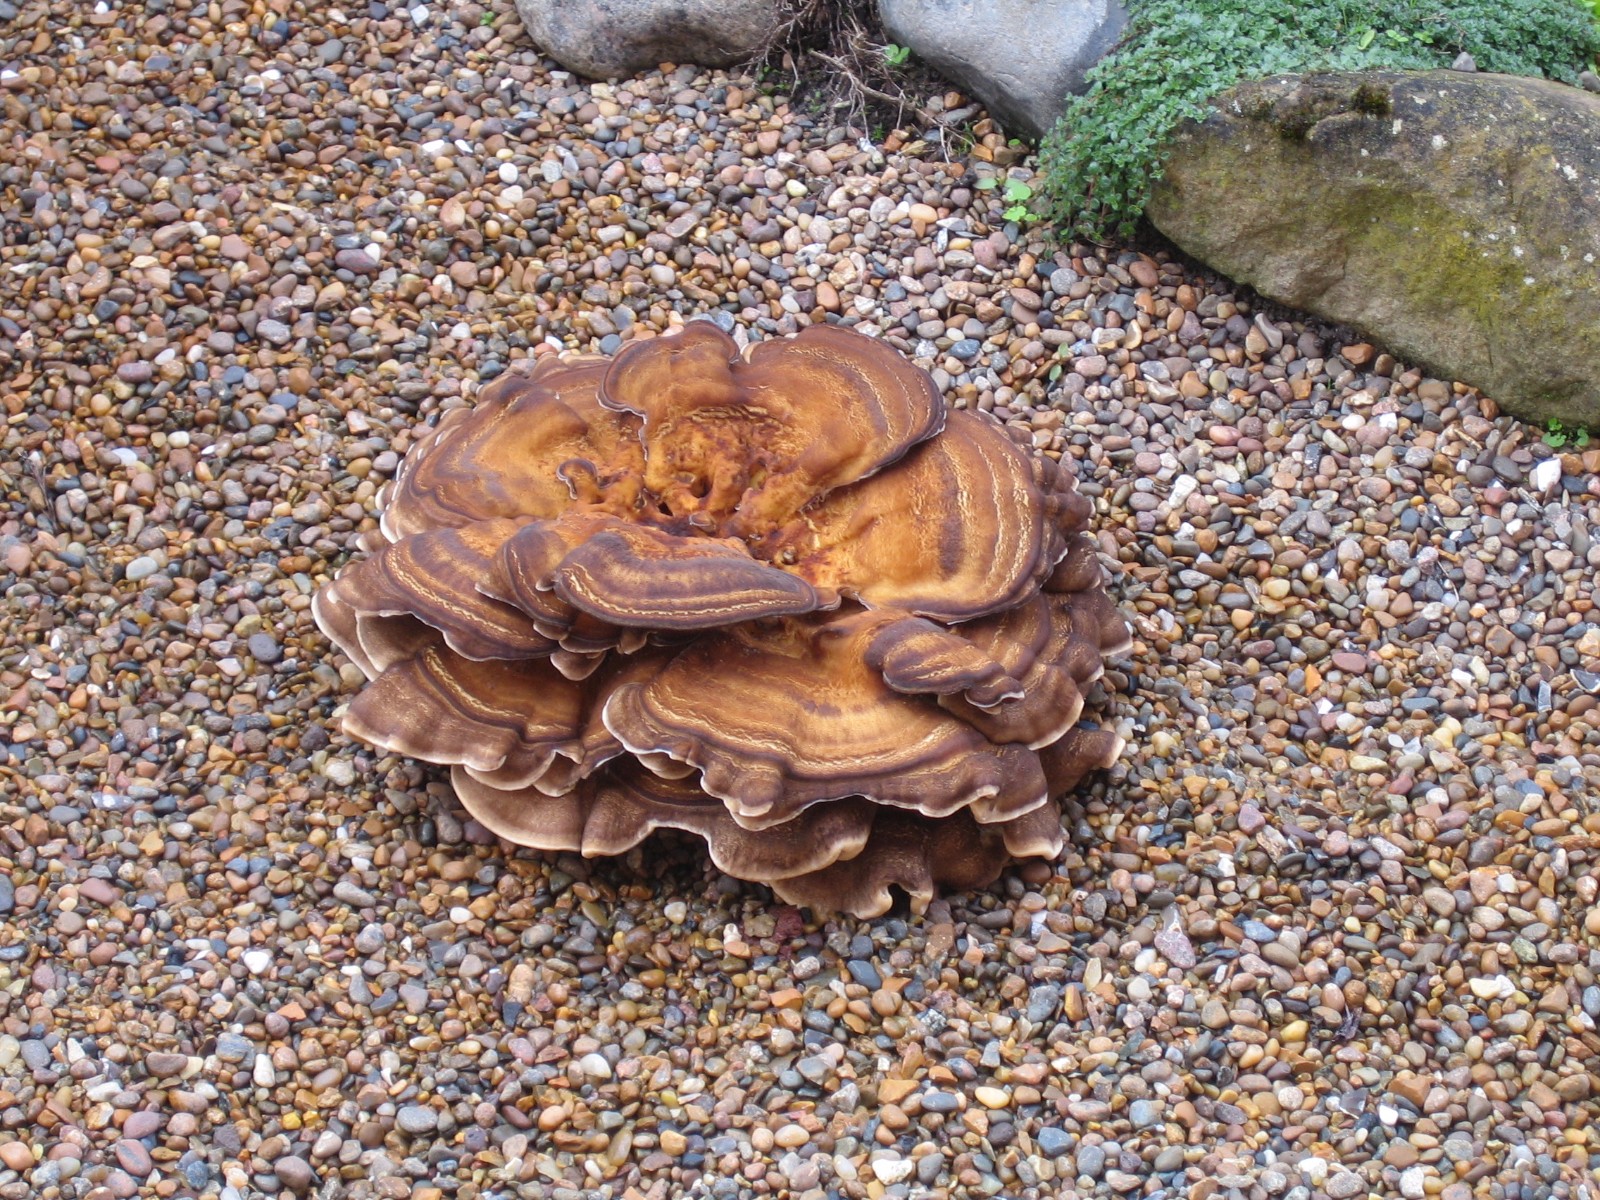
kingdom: Fungi
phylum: Basidiomycota
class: Agaricomycetes
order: Polyporales
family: Meripilaceae
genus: Meripilus
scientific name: Meripilus giganteus
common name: kæmpeporesvamp
